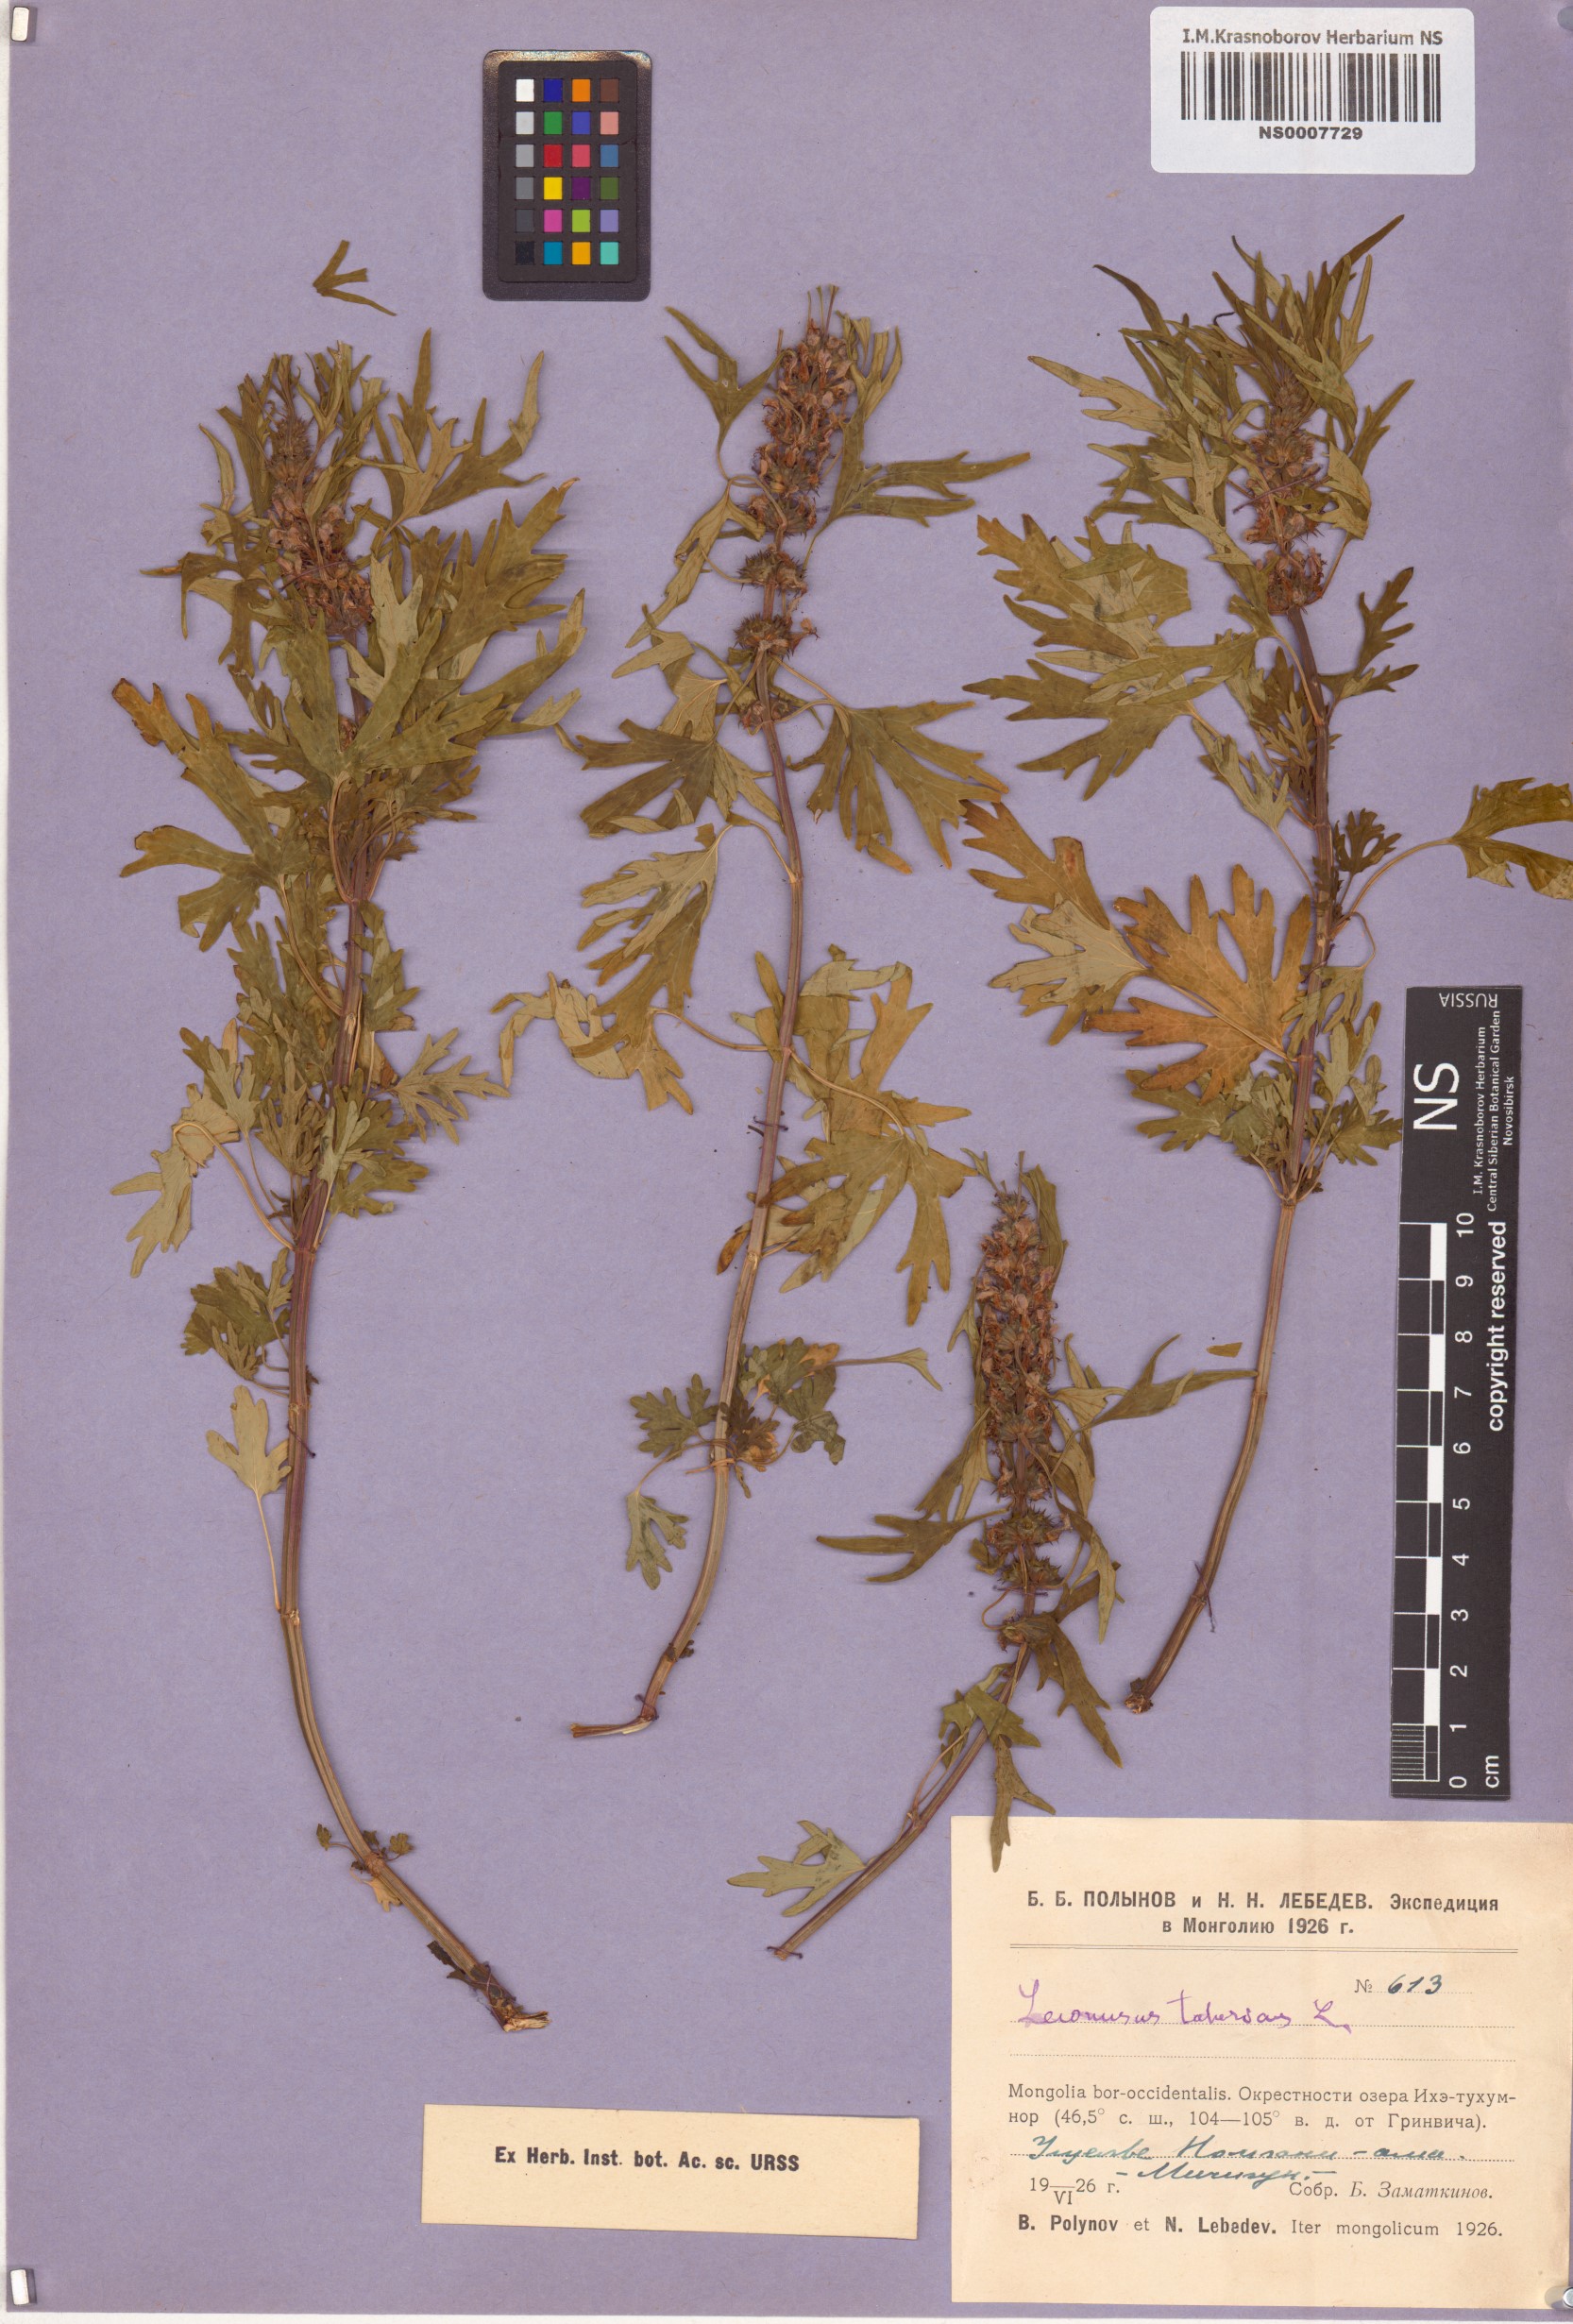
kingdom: Plantae
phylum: Tracheophyta
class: Magnoliopsida
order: Lamiales
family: Lamiaceae
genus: Leonurus
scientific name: Leonurus tataricus
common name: Chinese motherwort
